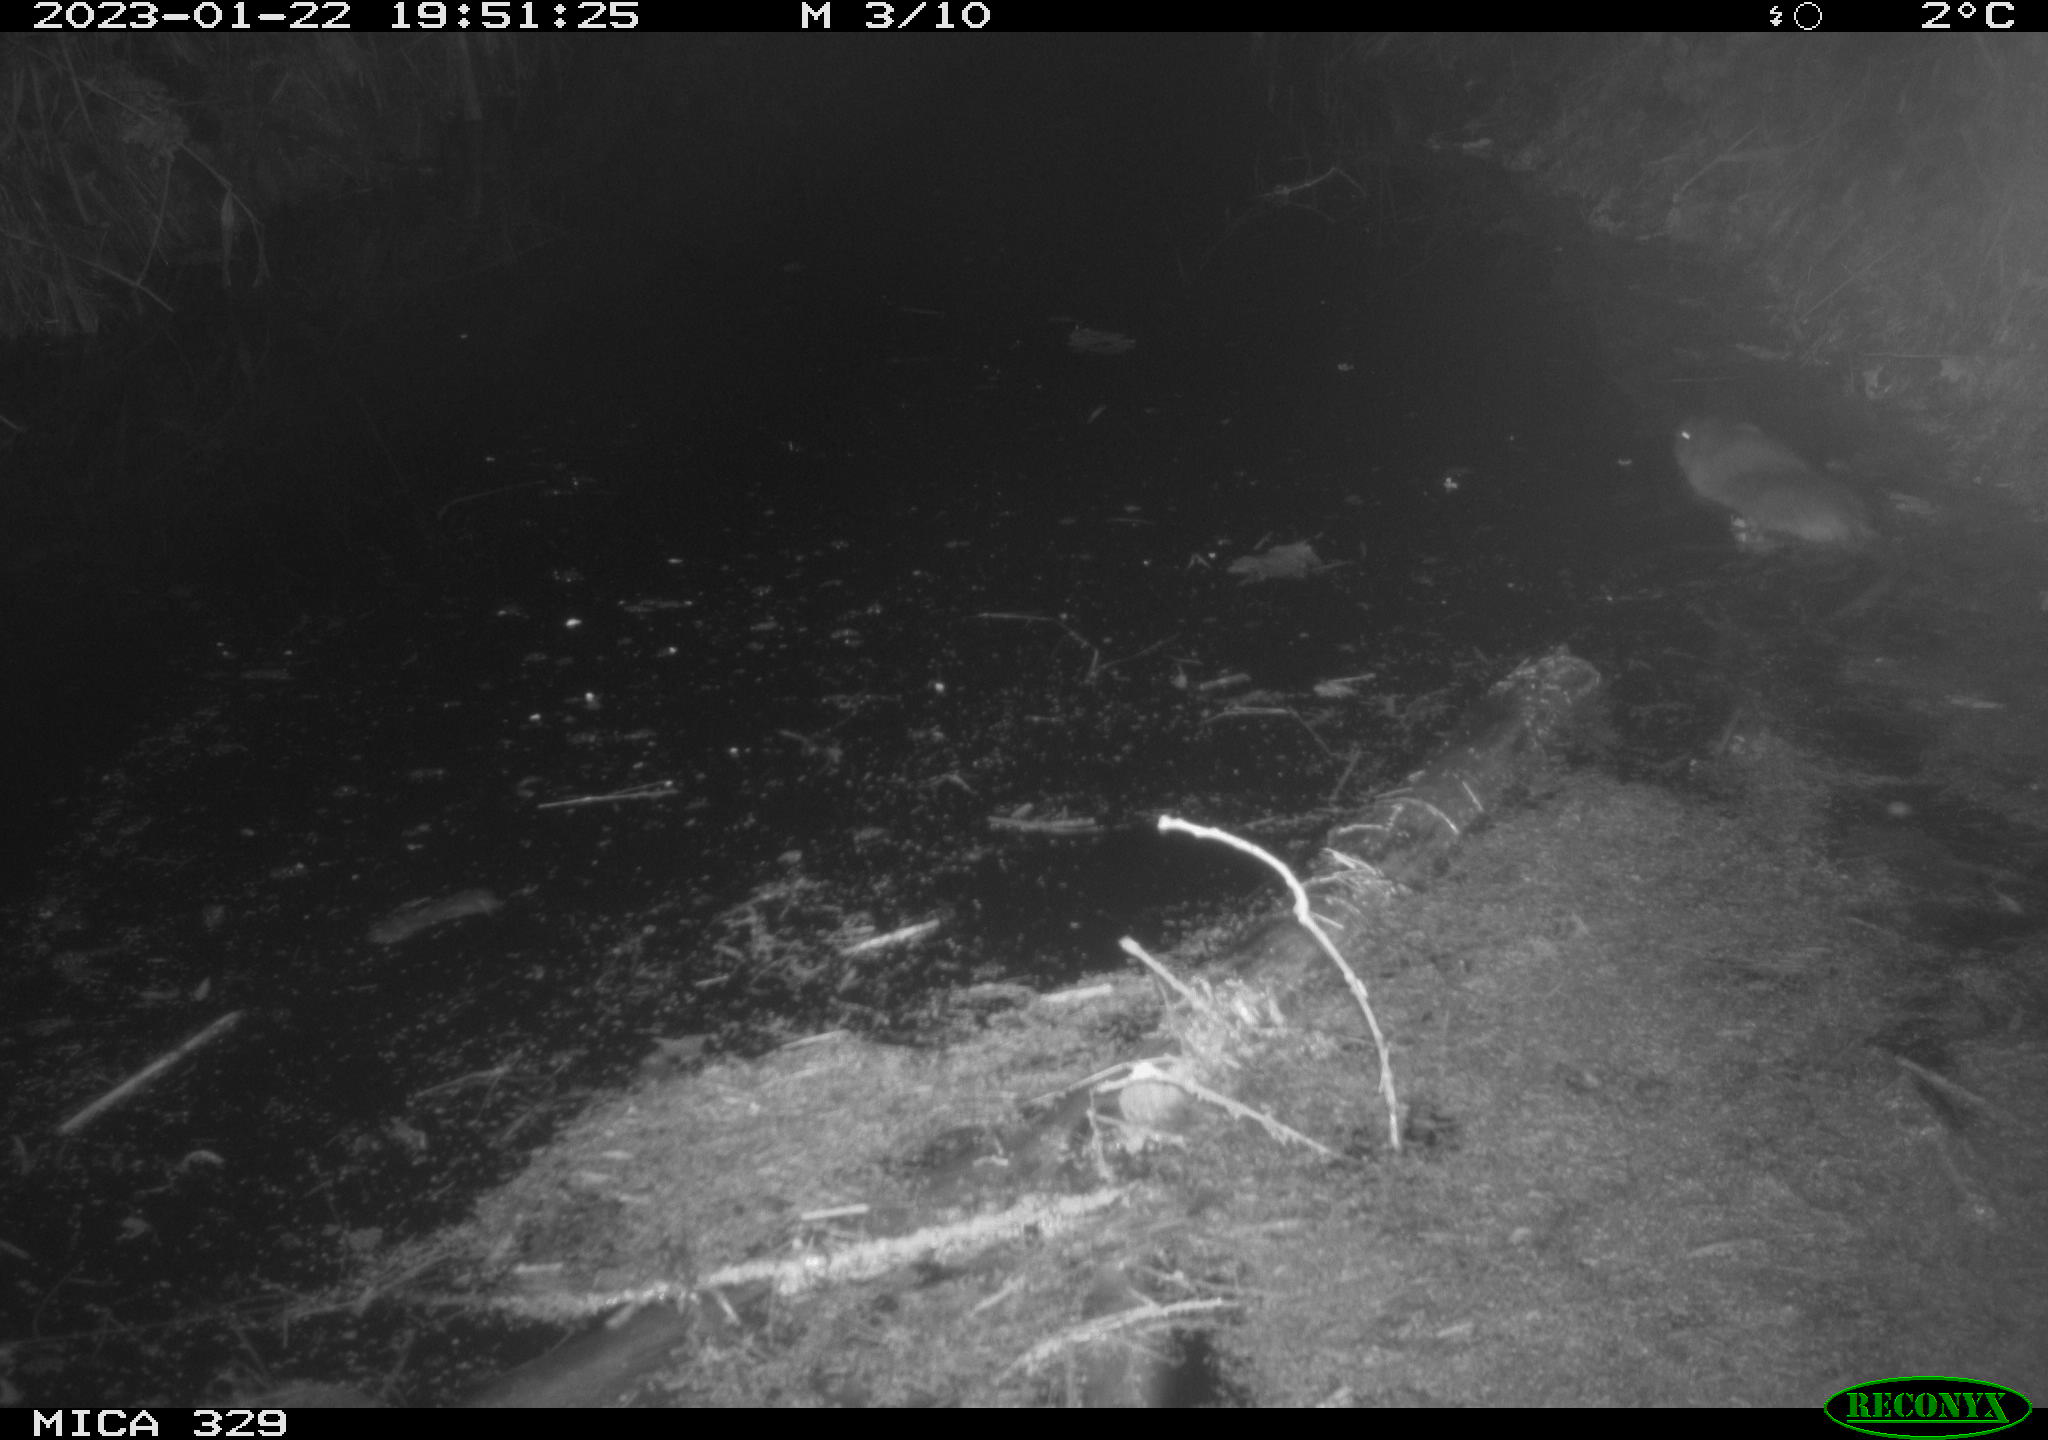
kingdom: Animalia
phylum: Chordata
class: Mammalia
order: Rodentia
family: Cricetidae
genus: Ondatra
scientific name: Ondatra zibethicus
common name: Muskrat
